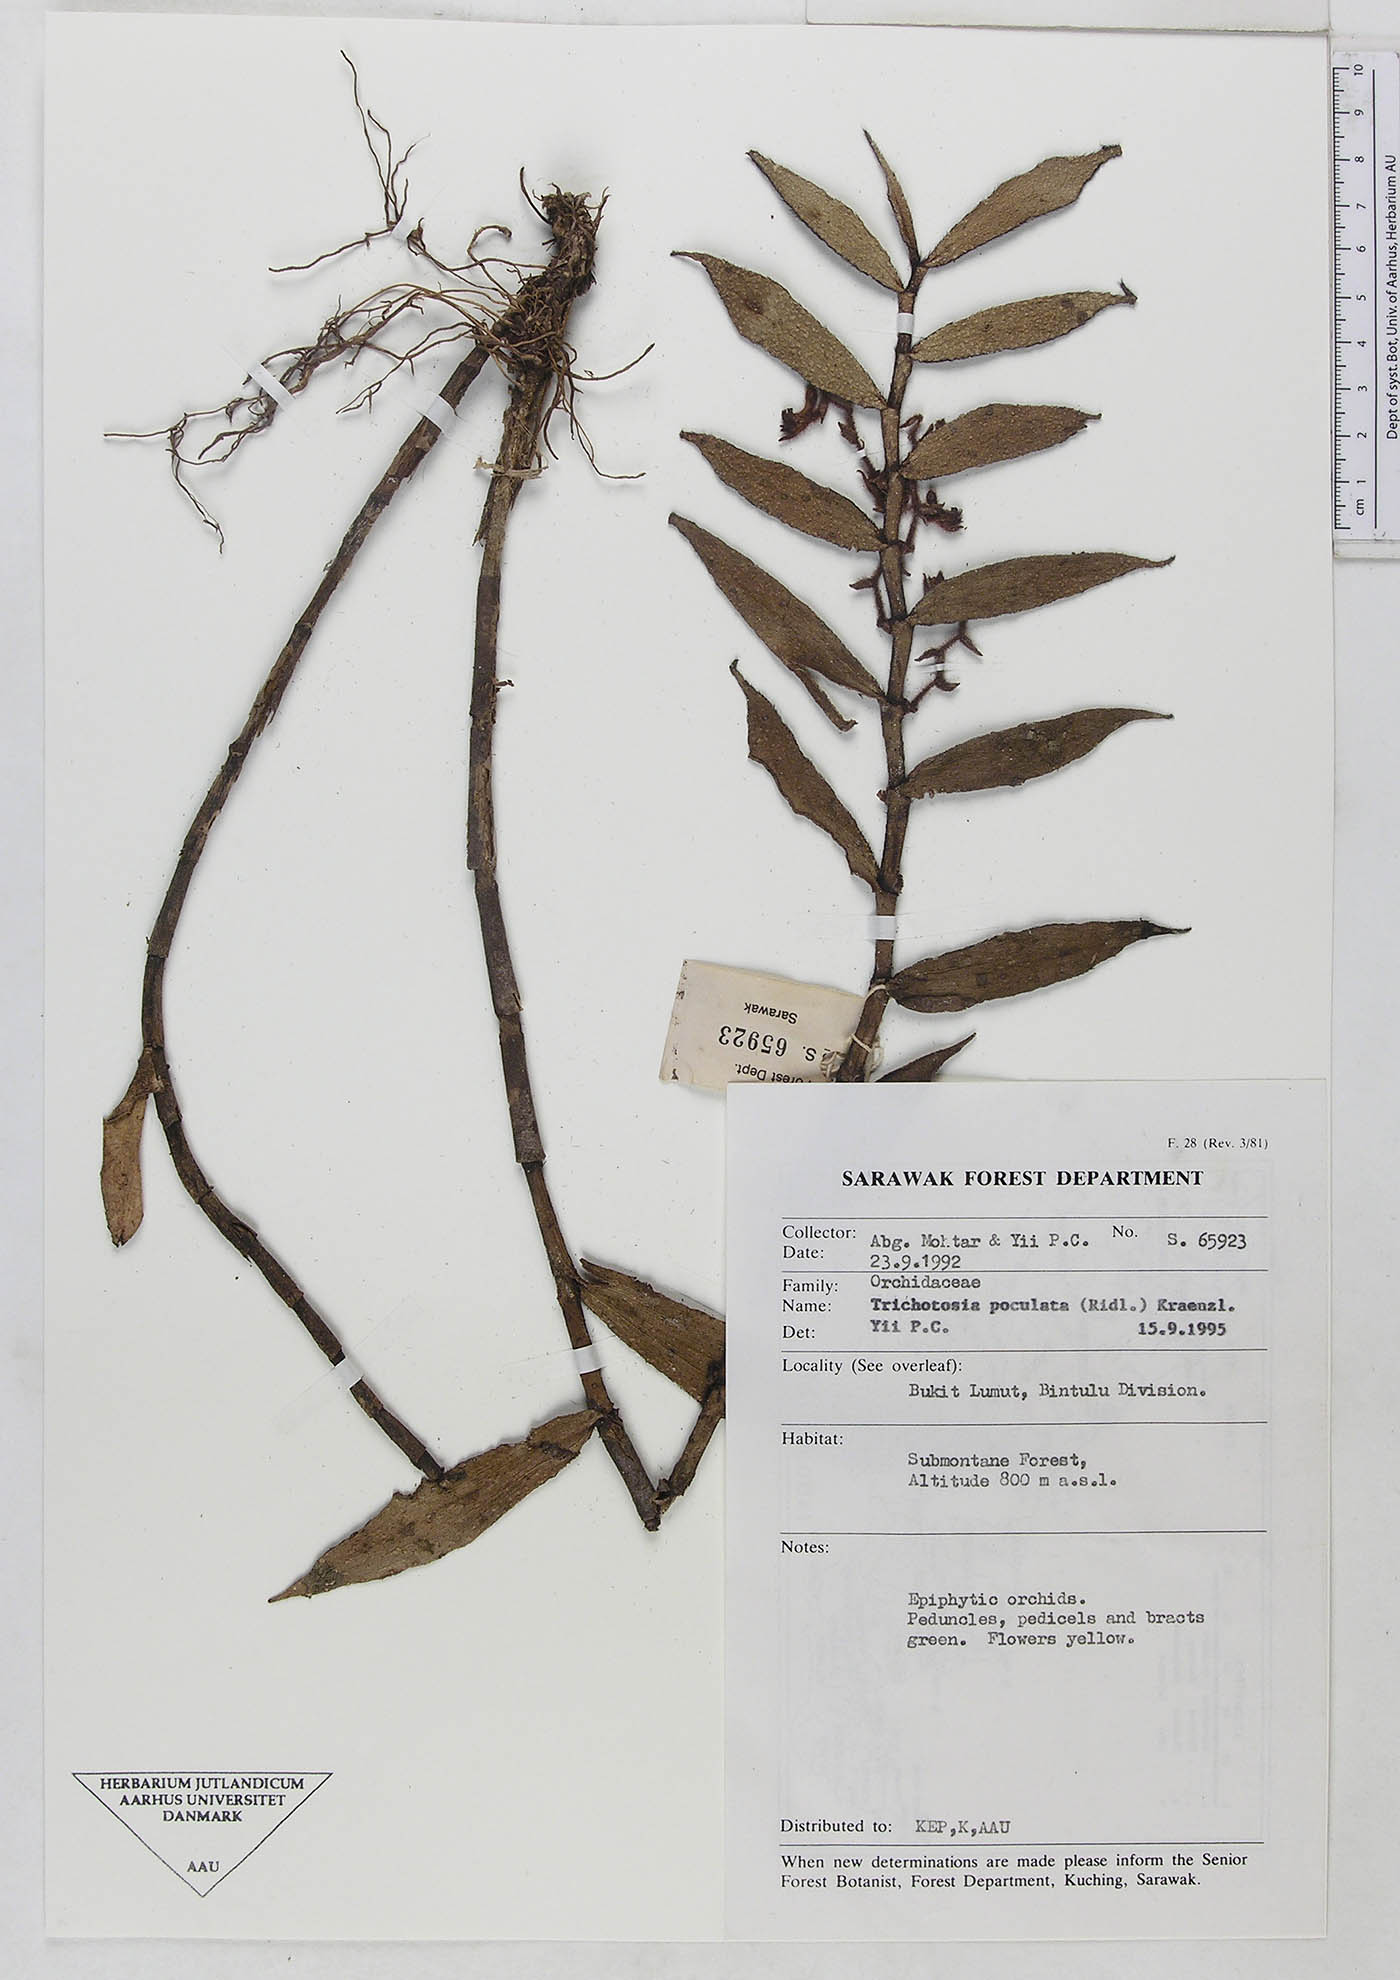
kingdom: Plantae
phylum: Tracheophyta
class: Liliopsida
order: Asparagales
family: Orchidaceae
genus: Trichotosia
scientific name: Trichotosia poculata
